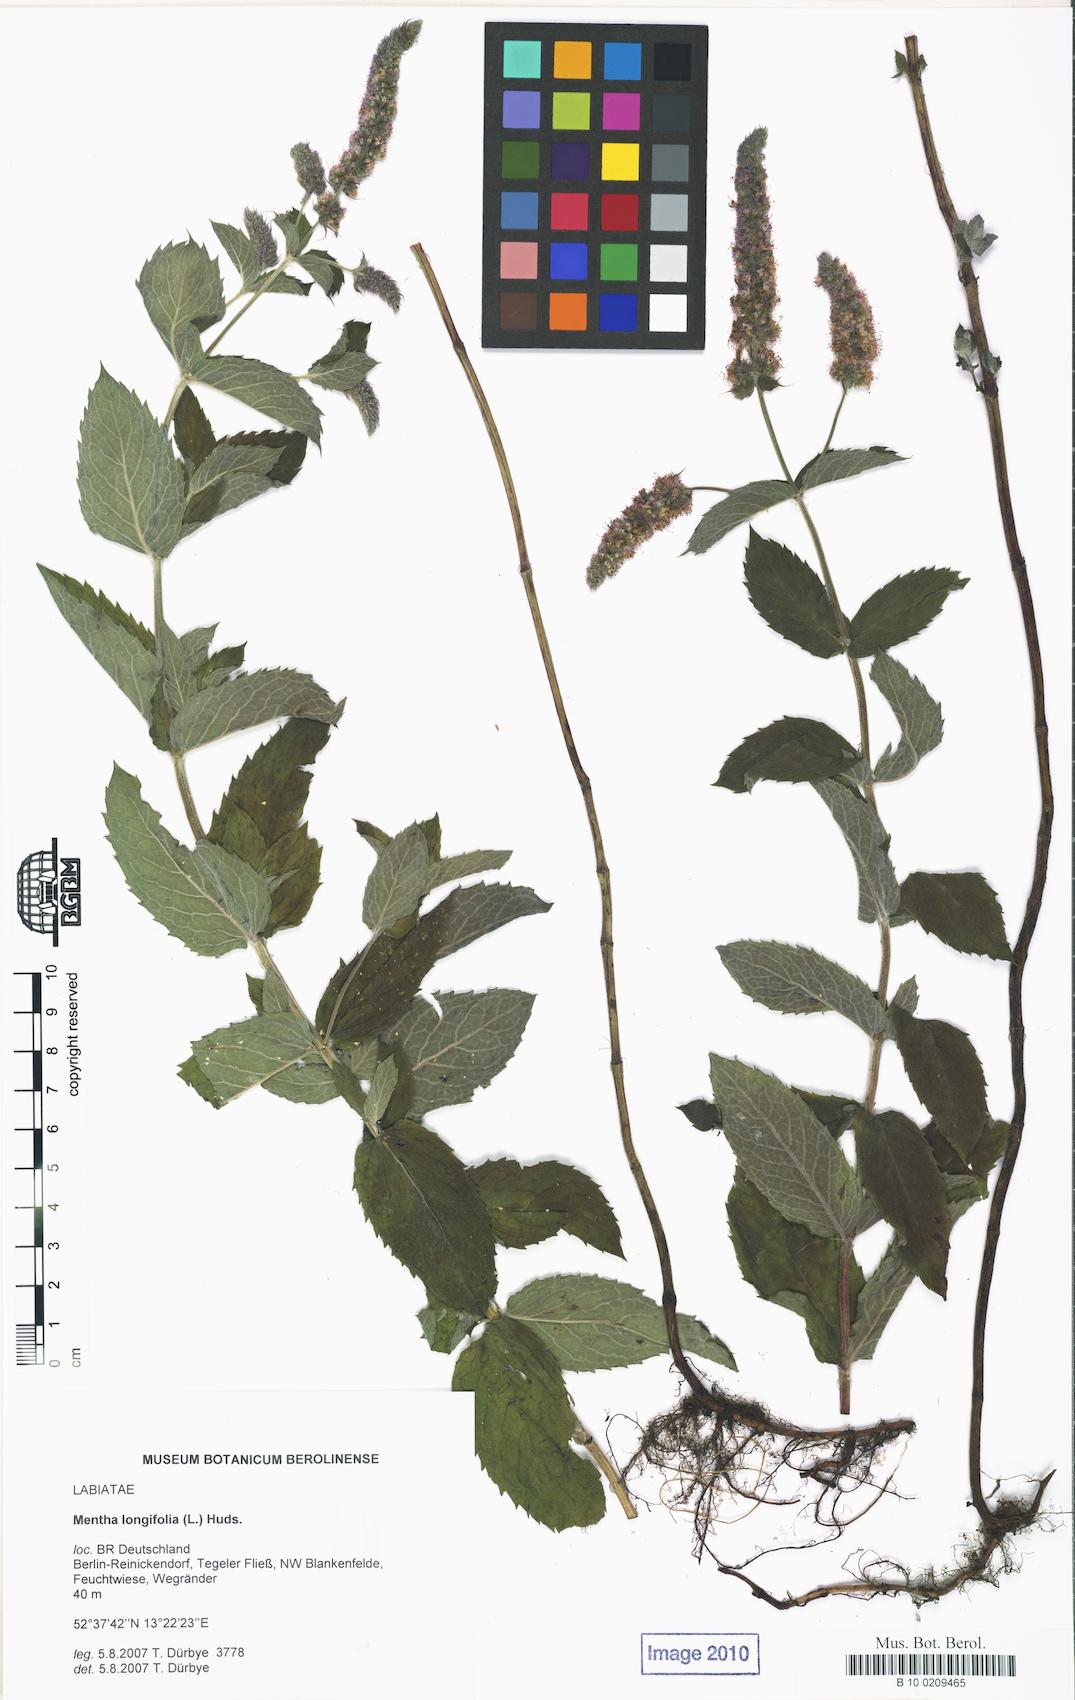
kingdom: Plantae
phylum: Tracheophyta
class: Magnoliopsida
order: Lamiales
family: Lamiaceae
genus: Mentha
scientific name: Mentha longifolia
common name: Horse mint
